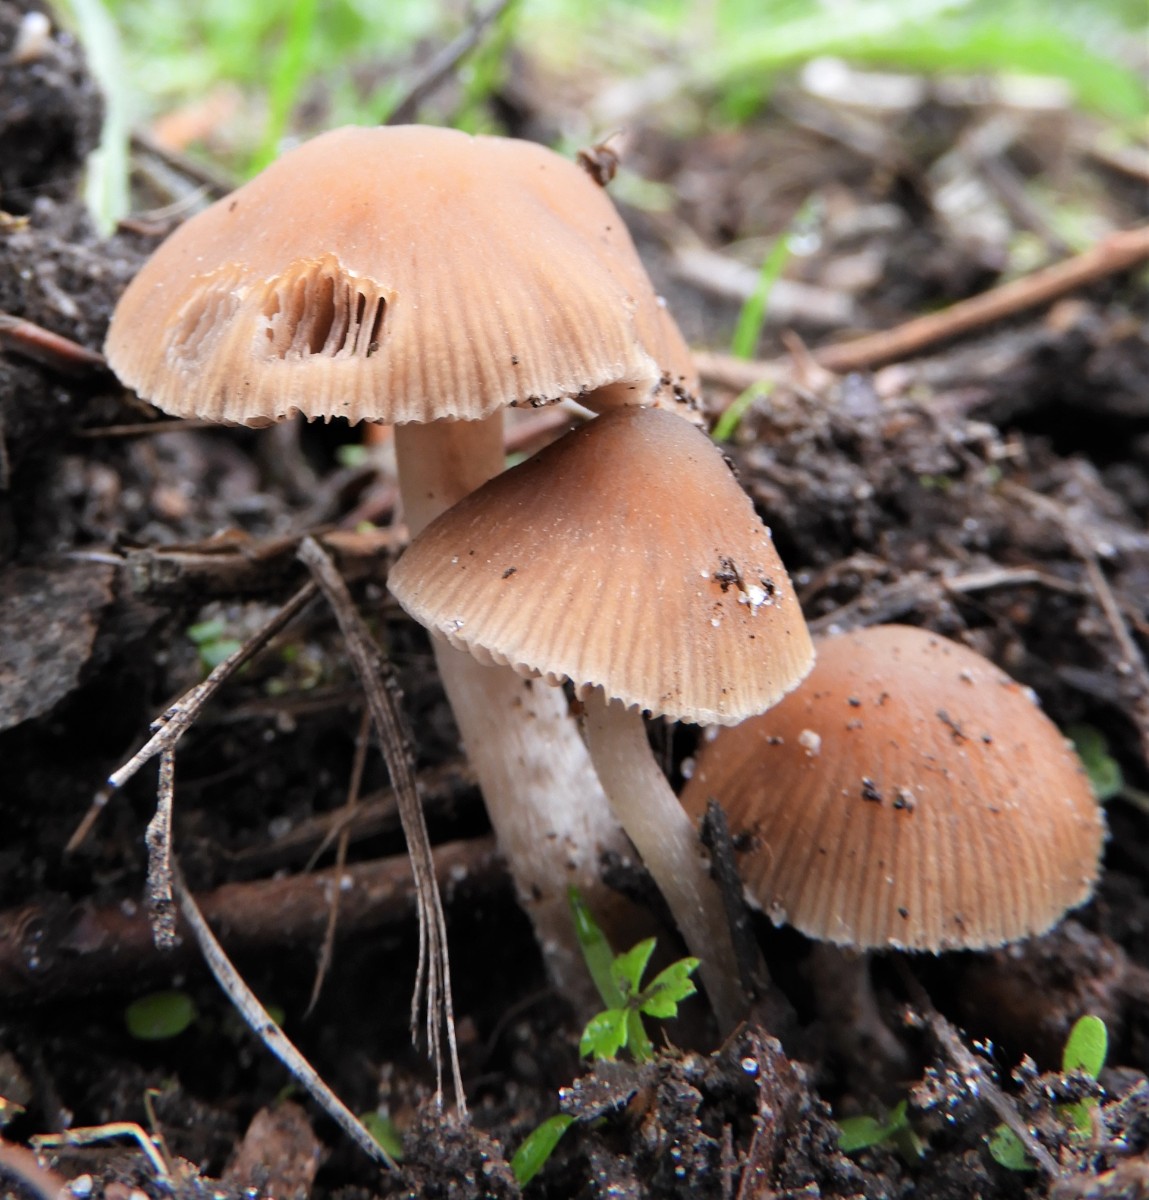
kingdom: Fungi
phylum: Basidiomycota
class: Agaricomycetes
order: Agaricales
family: Tubariaceae
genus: Tubaria
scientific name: Tubaria furfuracea
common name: kliddet fnughat
